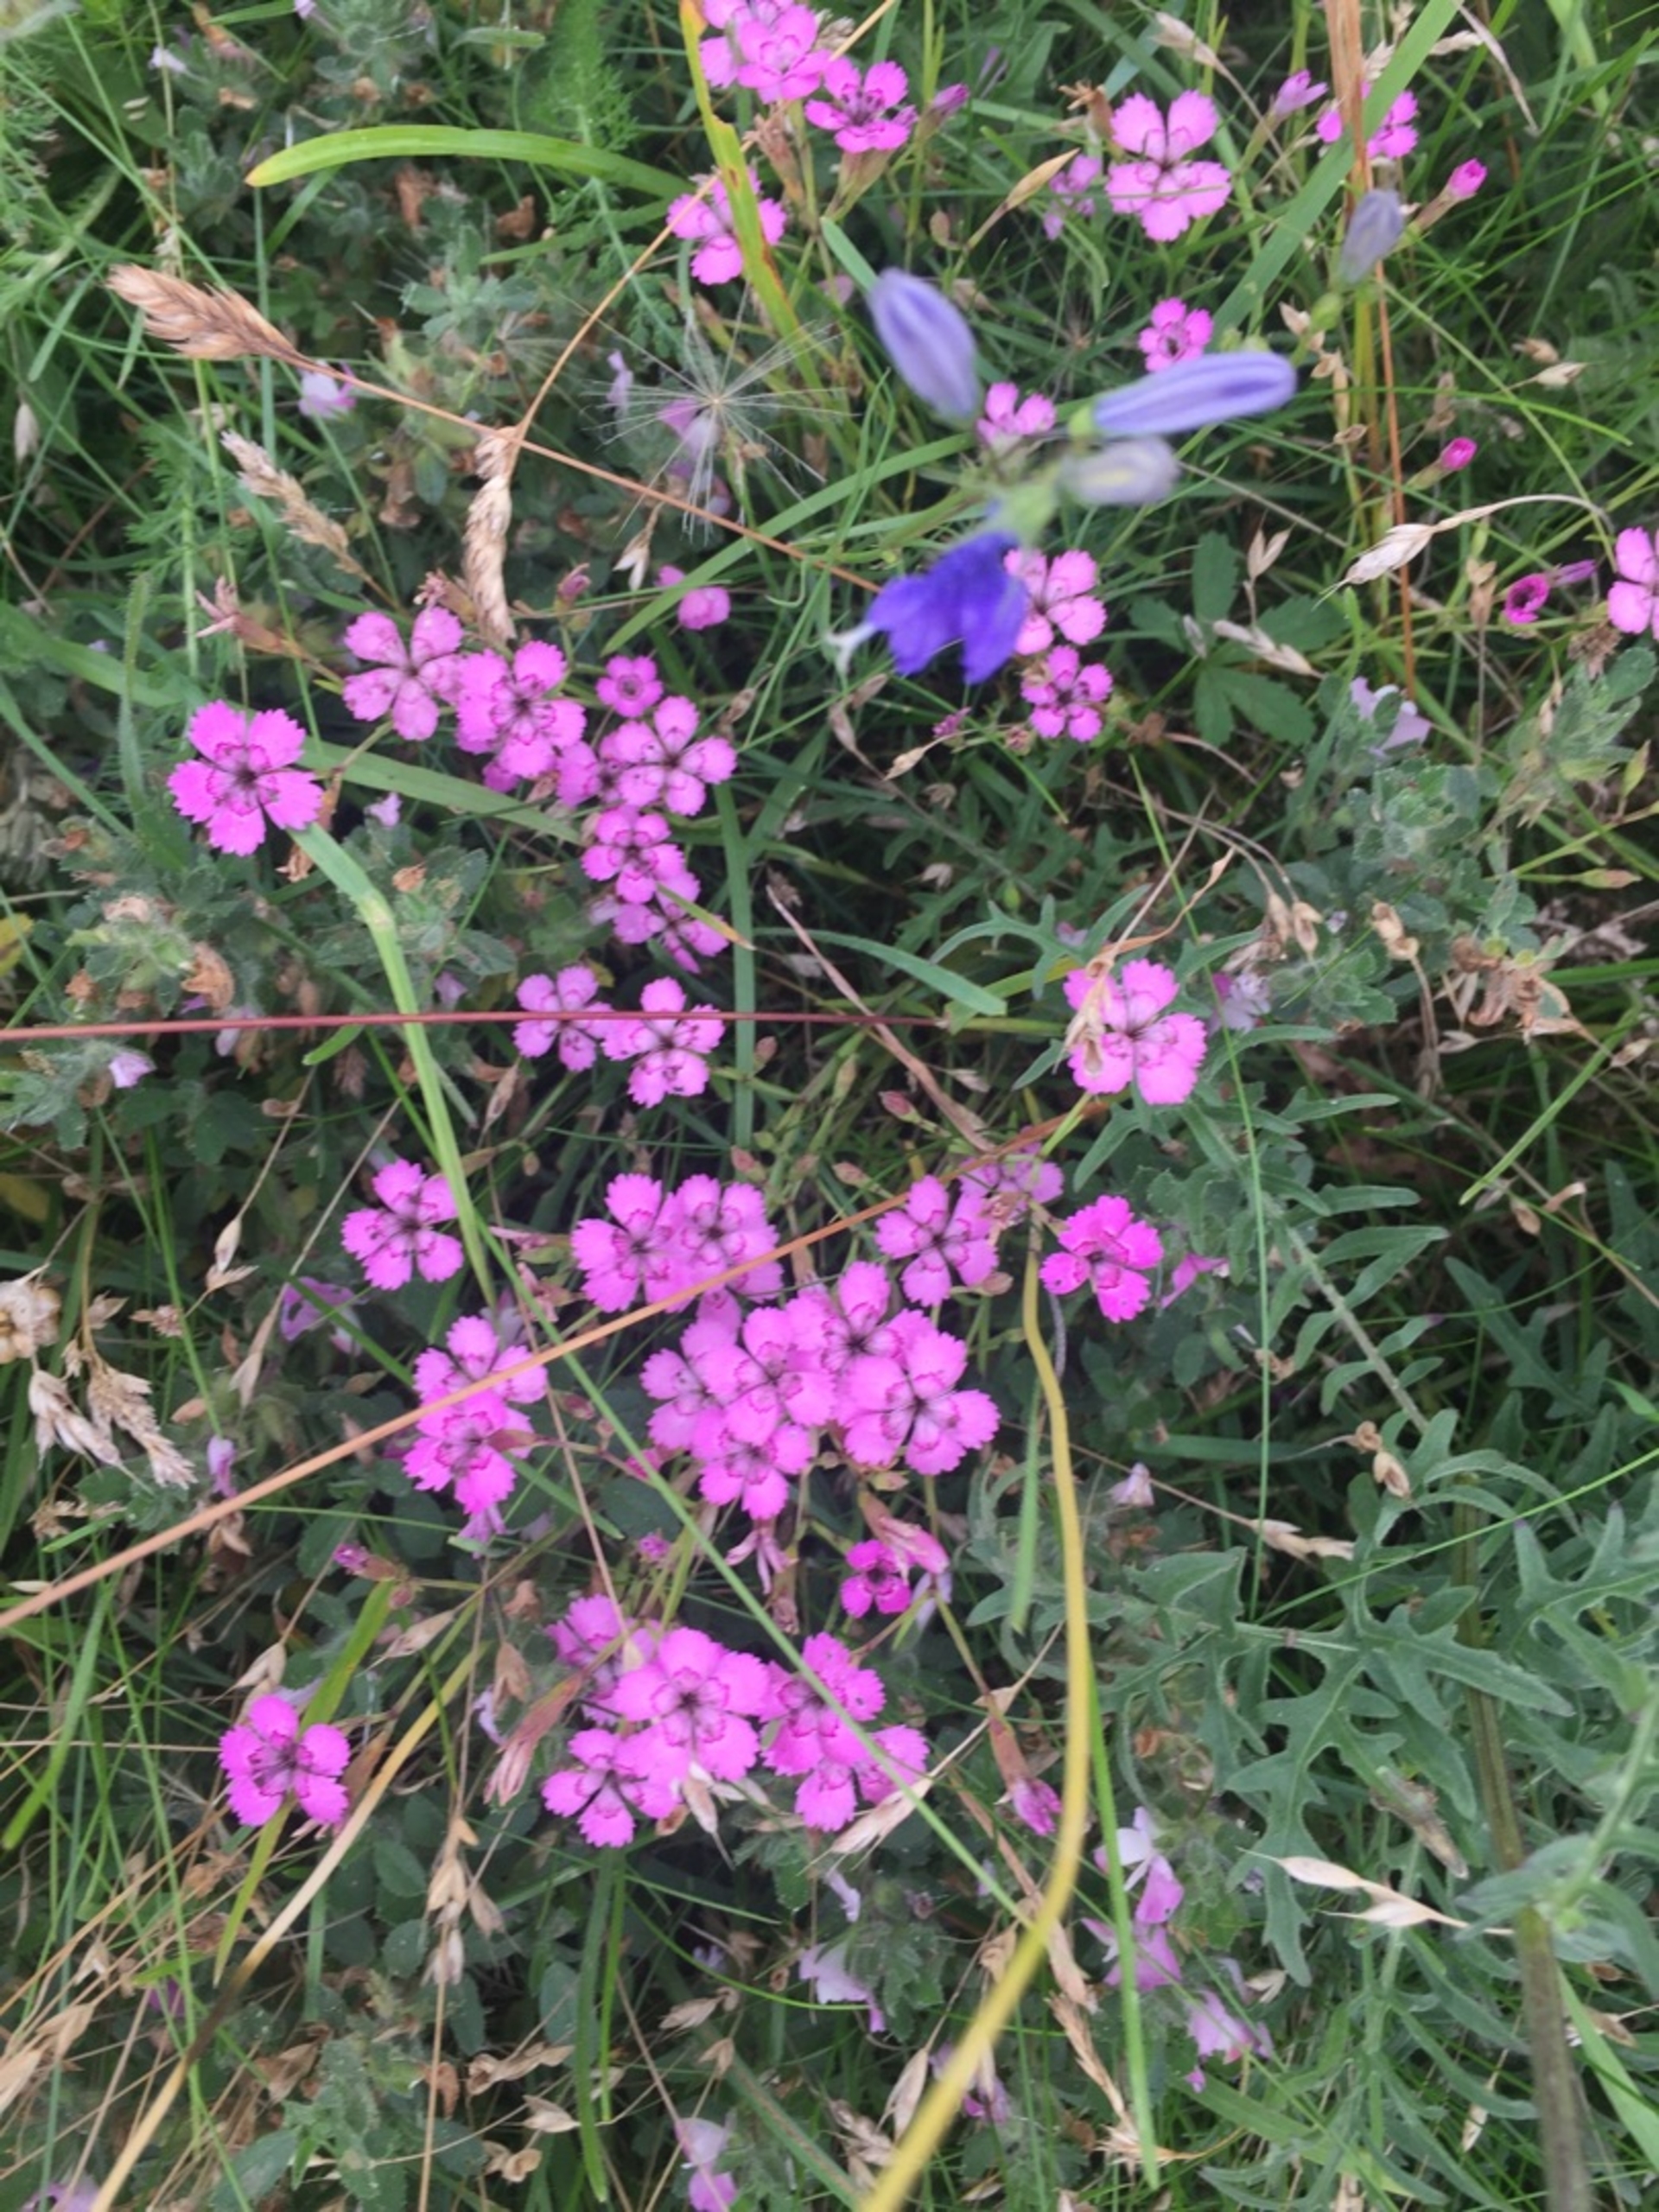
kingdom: Plantae
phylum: Tracheophyta
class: Magnoliopsida
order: Caryophyllales
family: Caryophyllaceae
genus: Dianthus
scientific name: Dianthus deltoides
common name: Bakke-nellike
